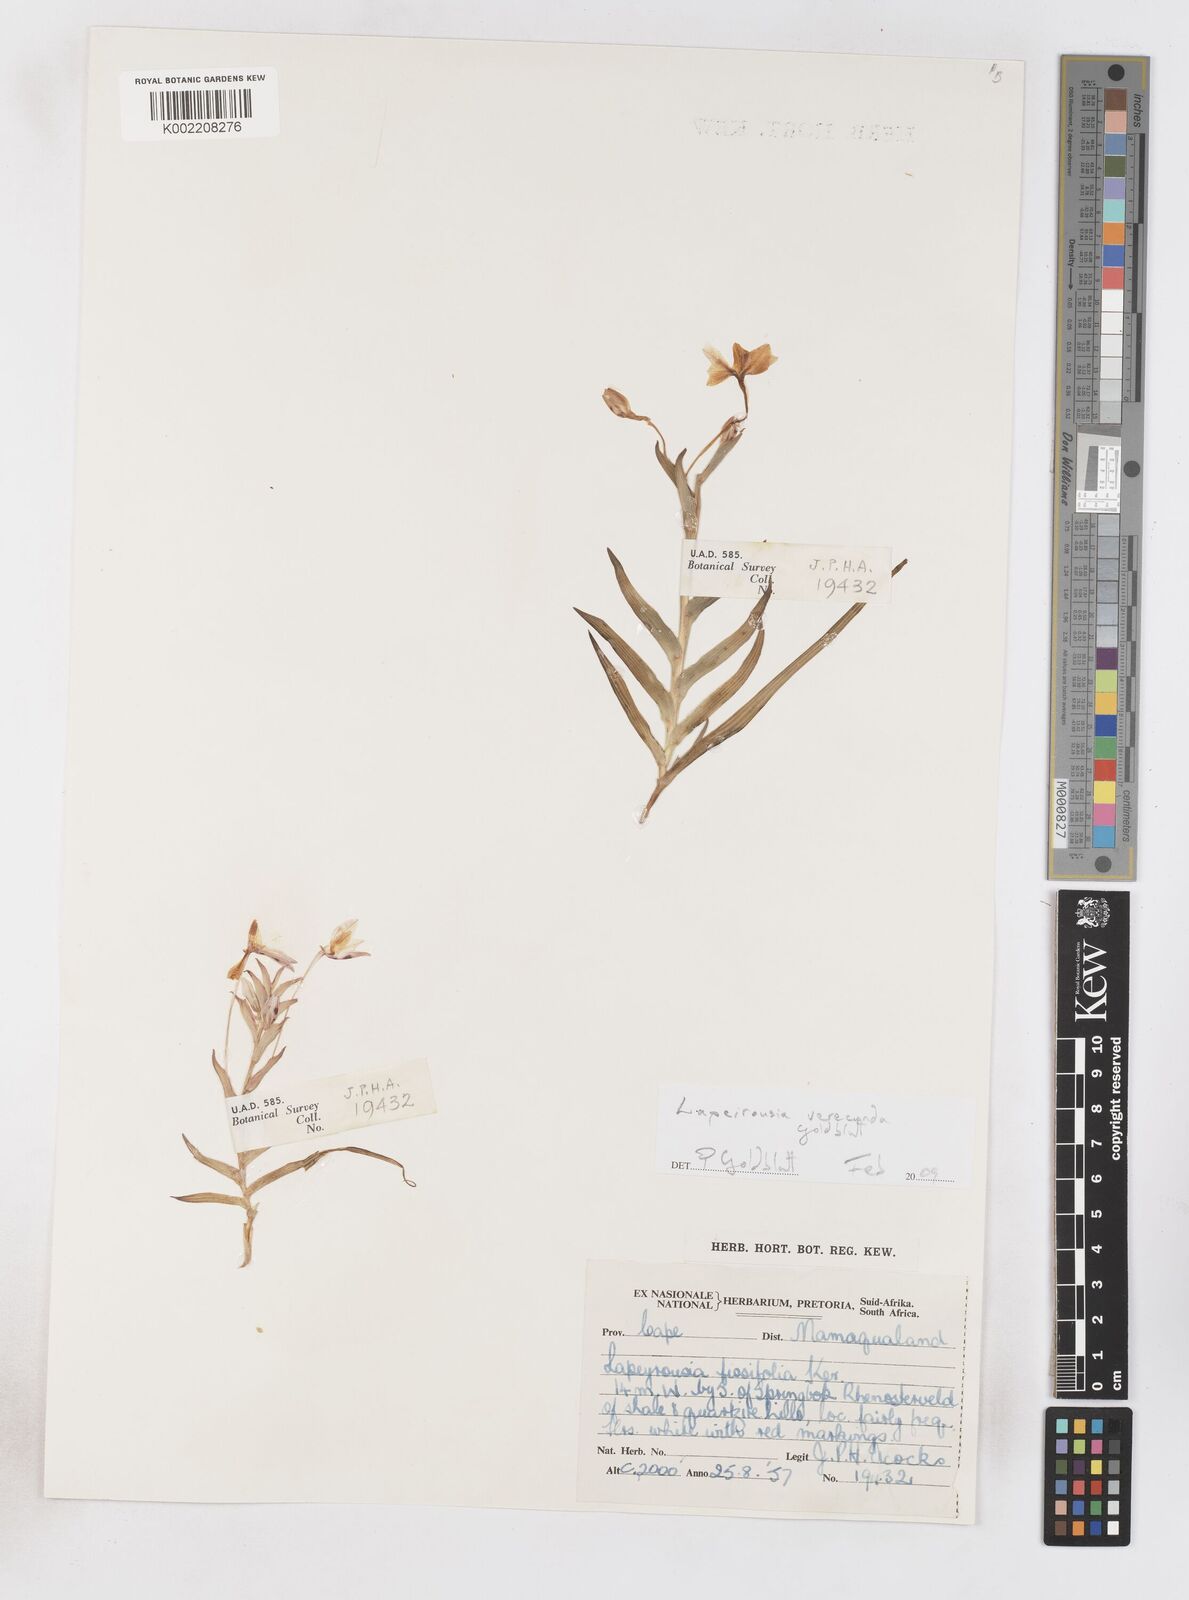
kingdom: Plantae
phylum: Tracheophyta
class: Liliopsida
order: Asparagales
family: Iridaceae
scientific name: Iridaceae
